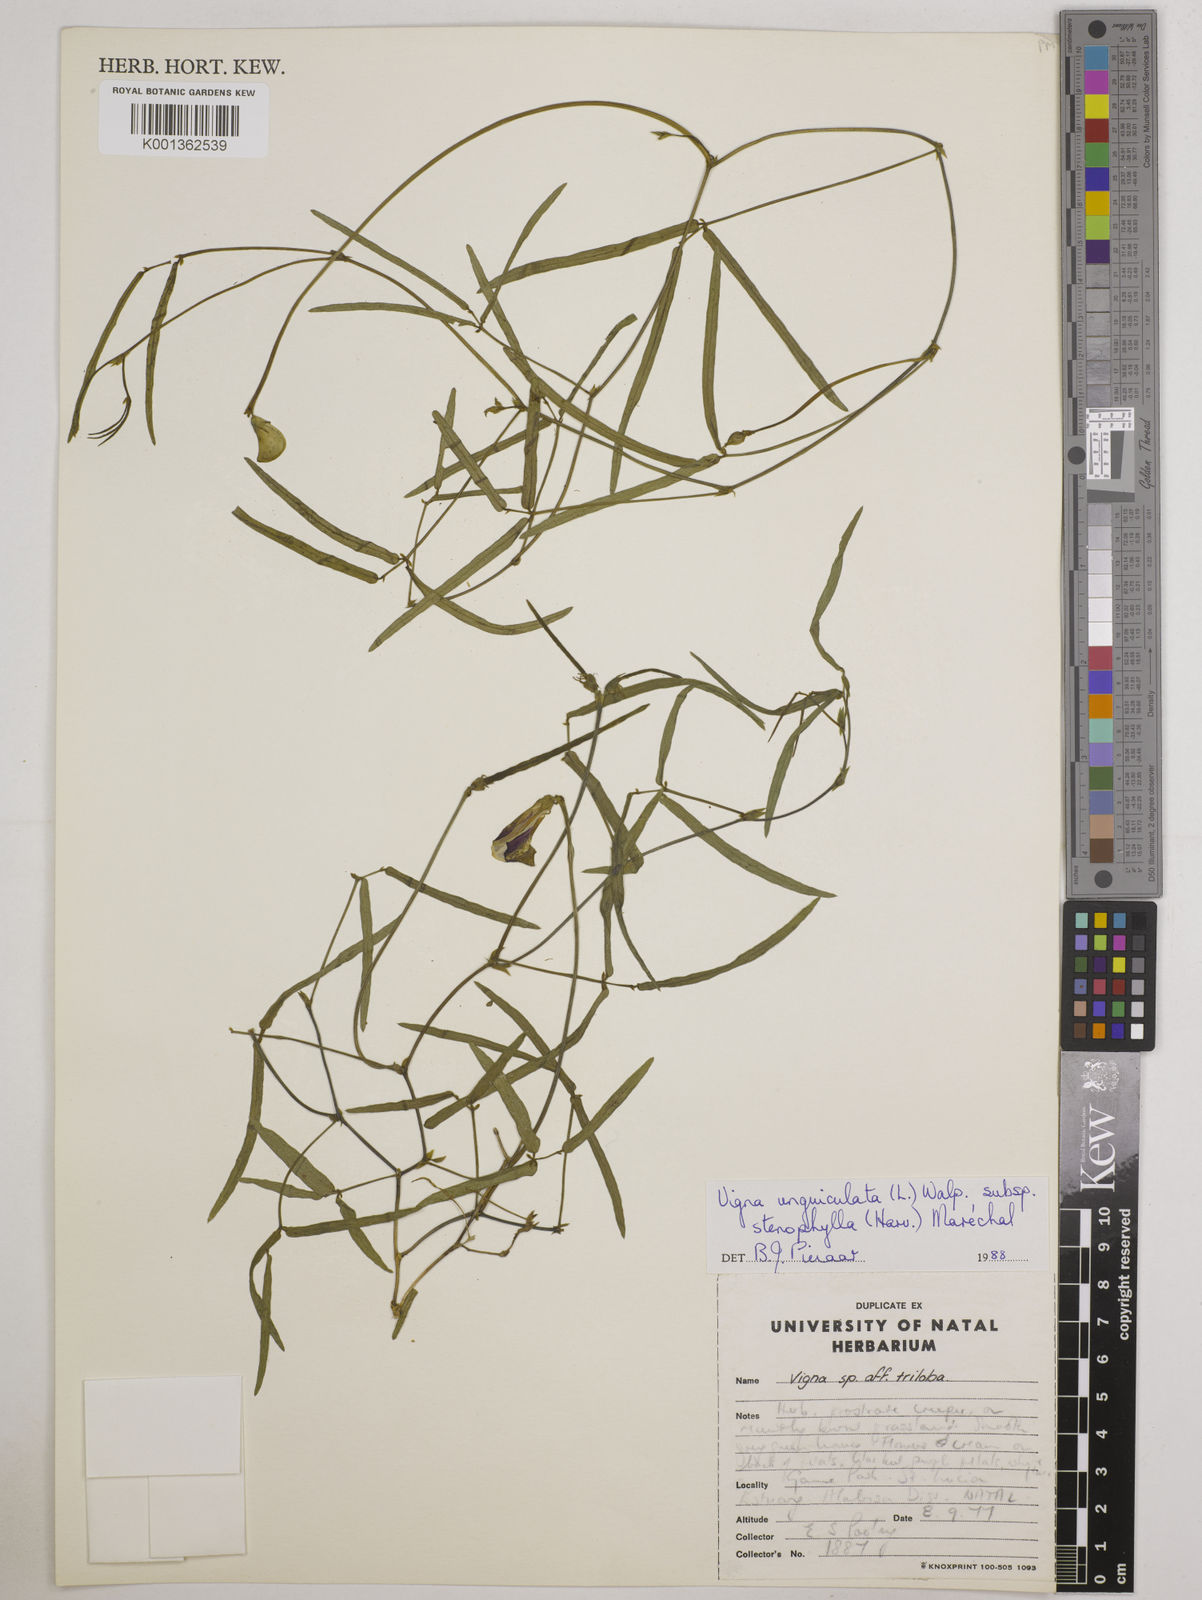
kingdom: Plantae
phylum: Tracheophyta
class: Magnoliopsida
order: Fabales
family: Fabaceae
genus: Vigna
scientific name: Vigna
